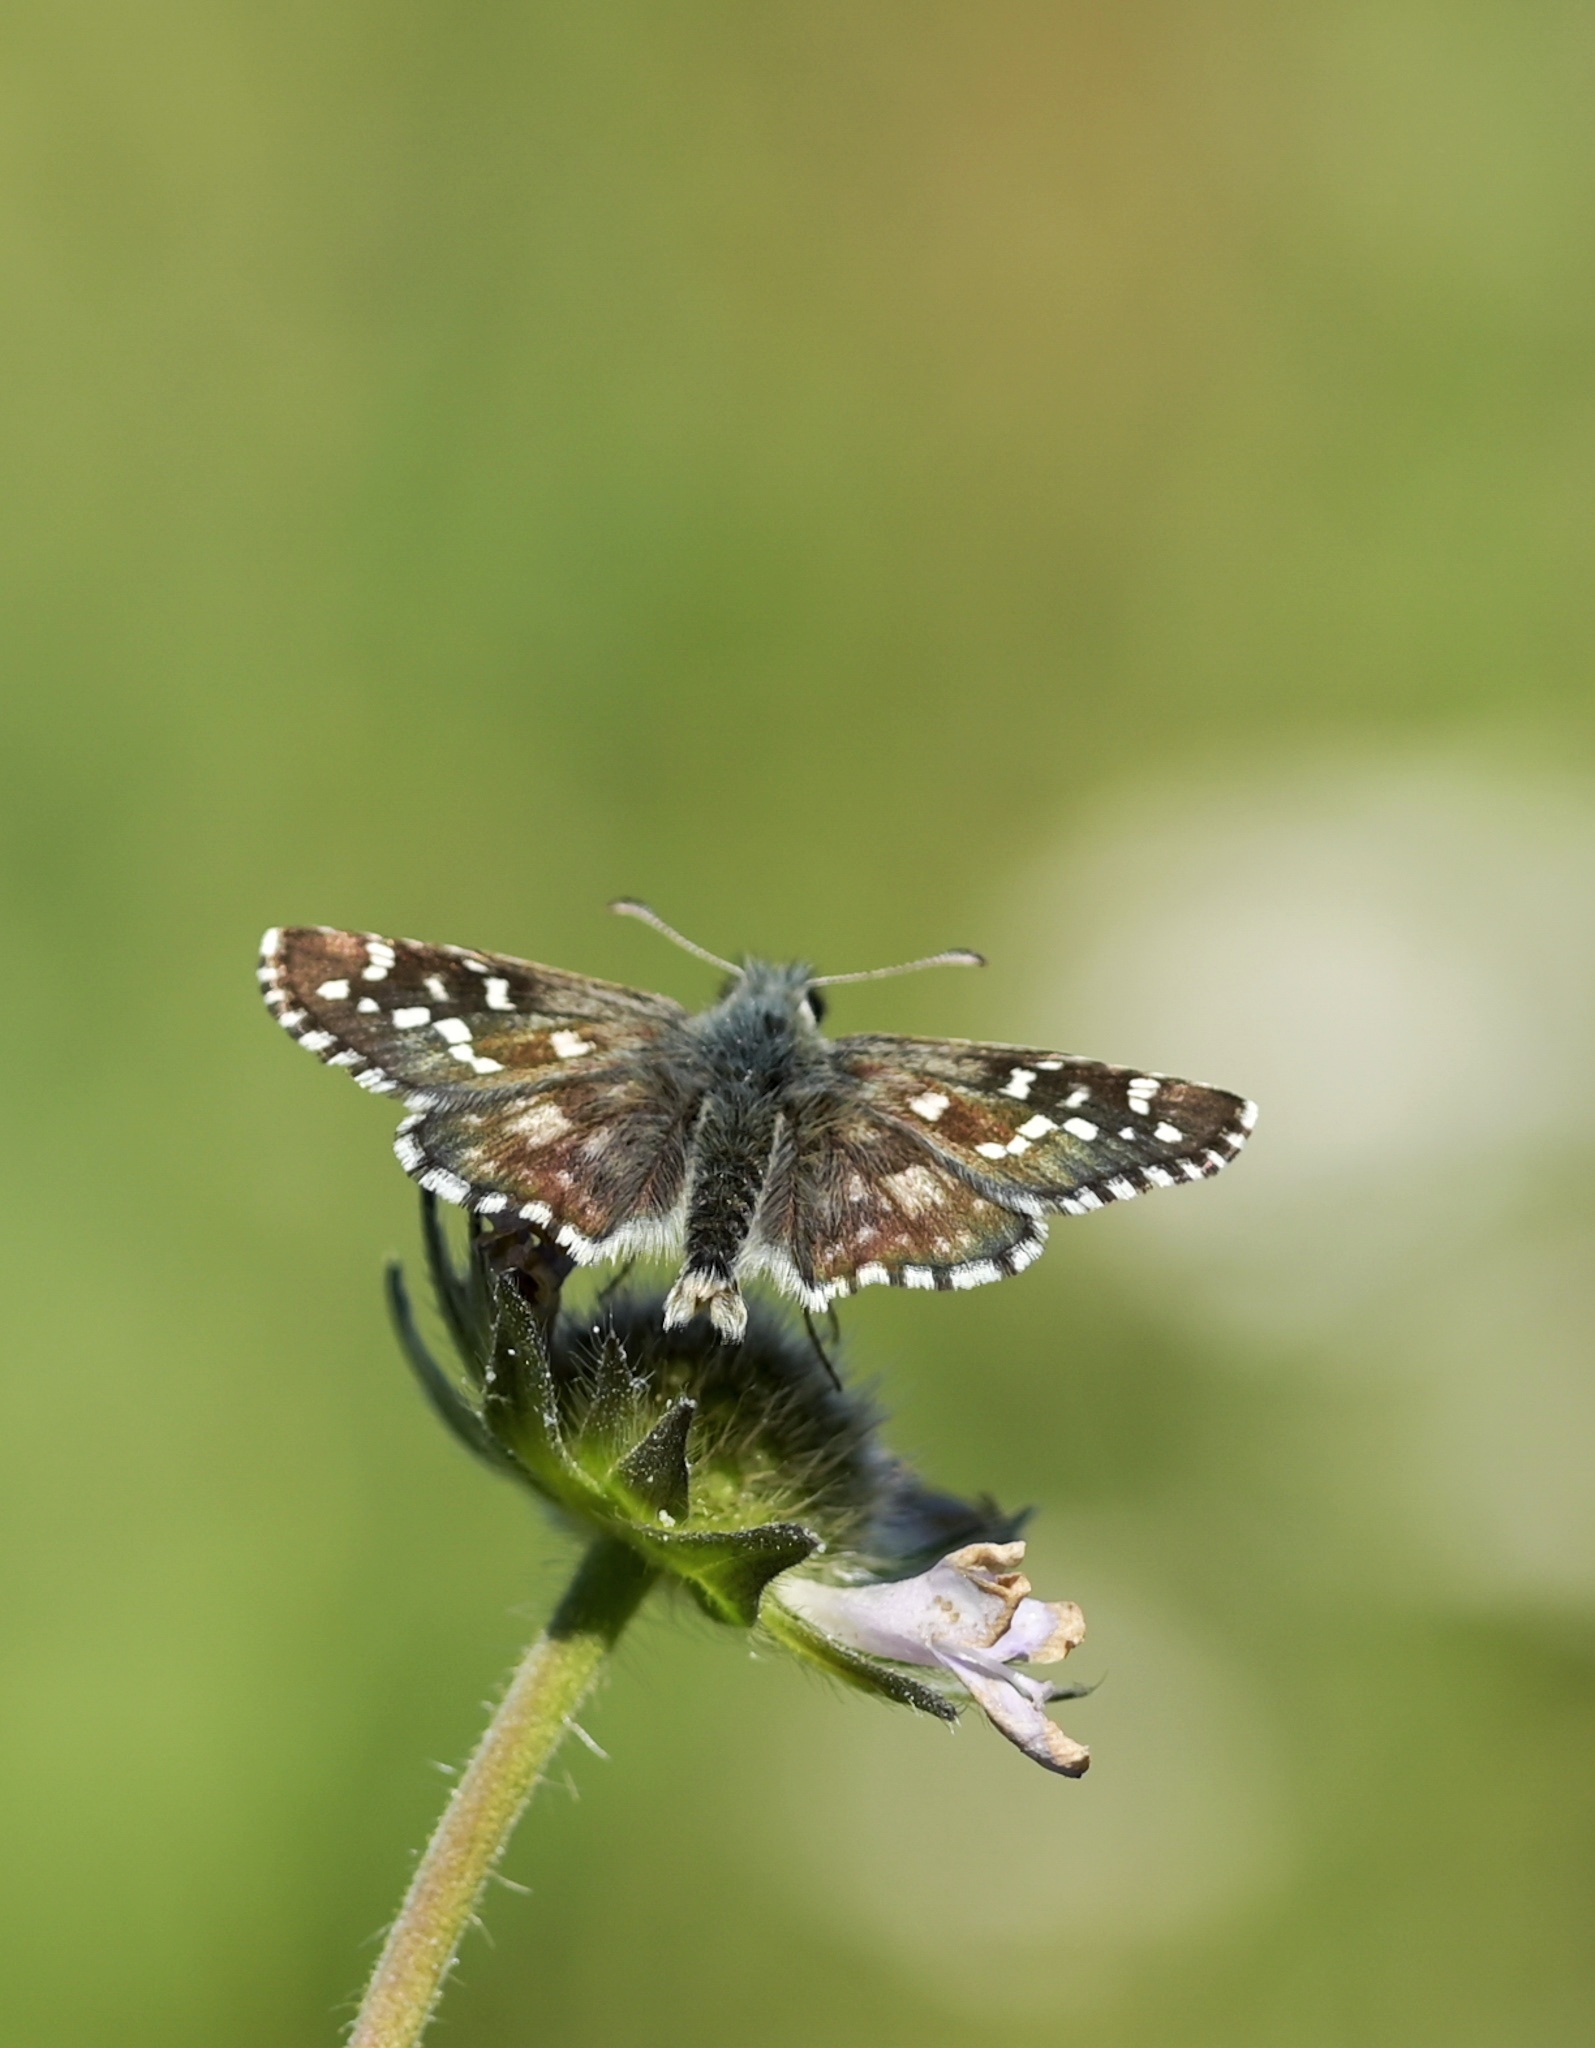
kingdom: Animalia
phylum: Arthropoda
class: Insecta
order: Lepidoptera
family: Hesperiidae
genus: Pyrgus
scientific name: Pyrgus alveus
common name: Large grizzled skipper
